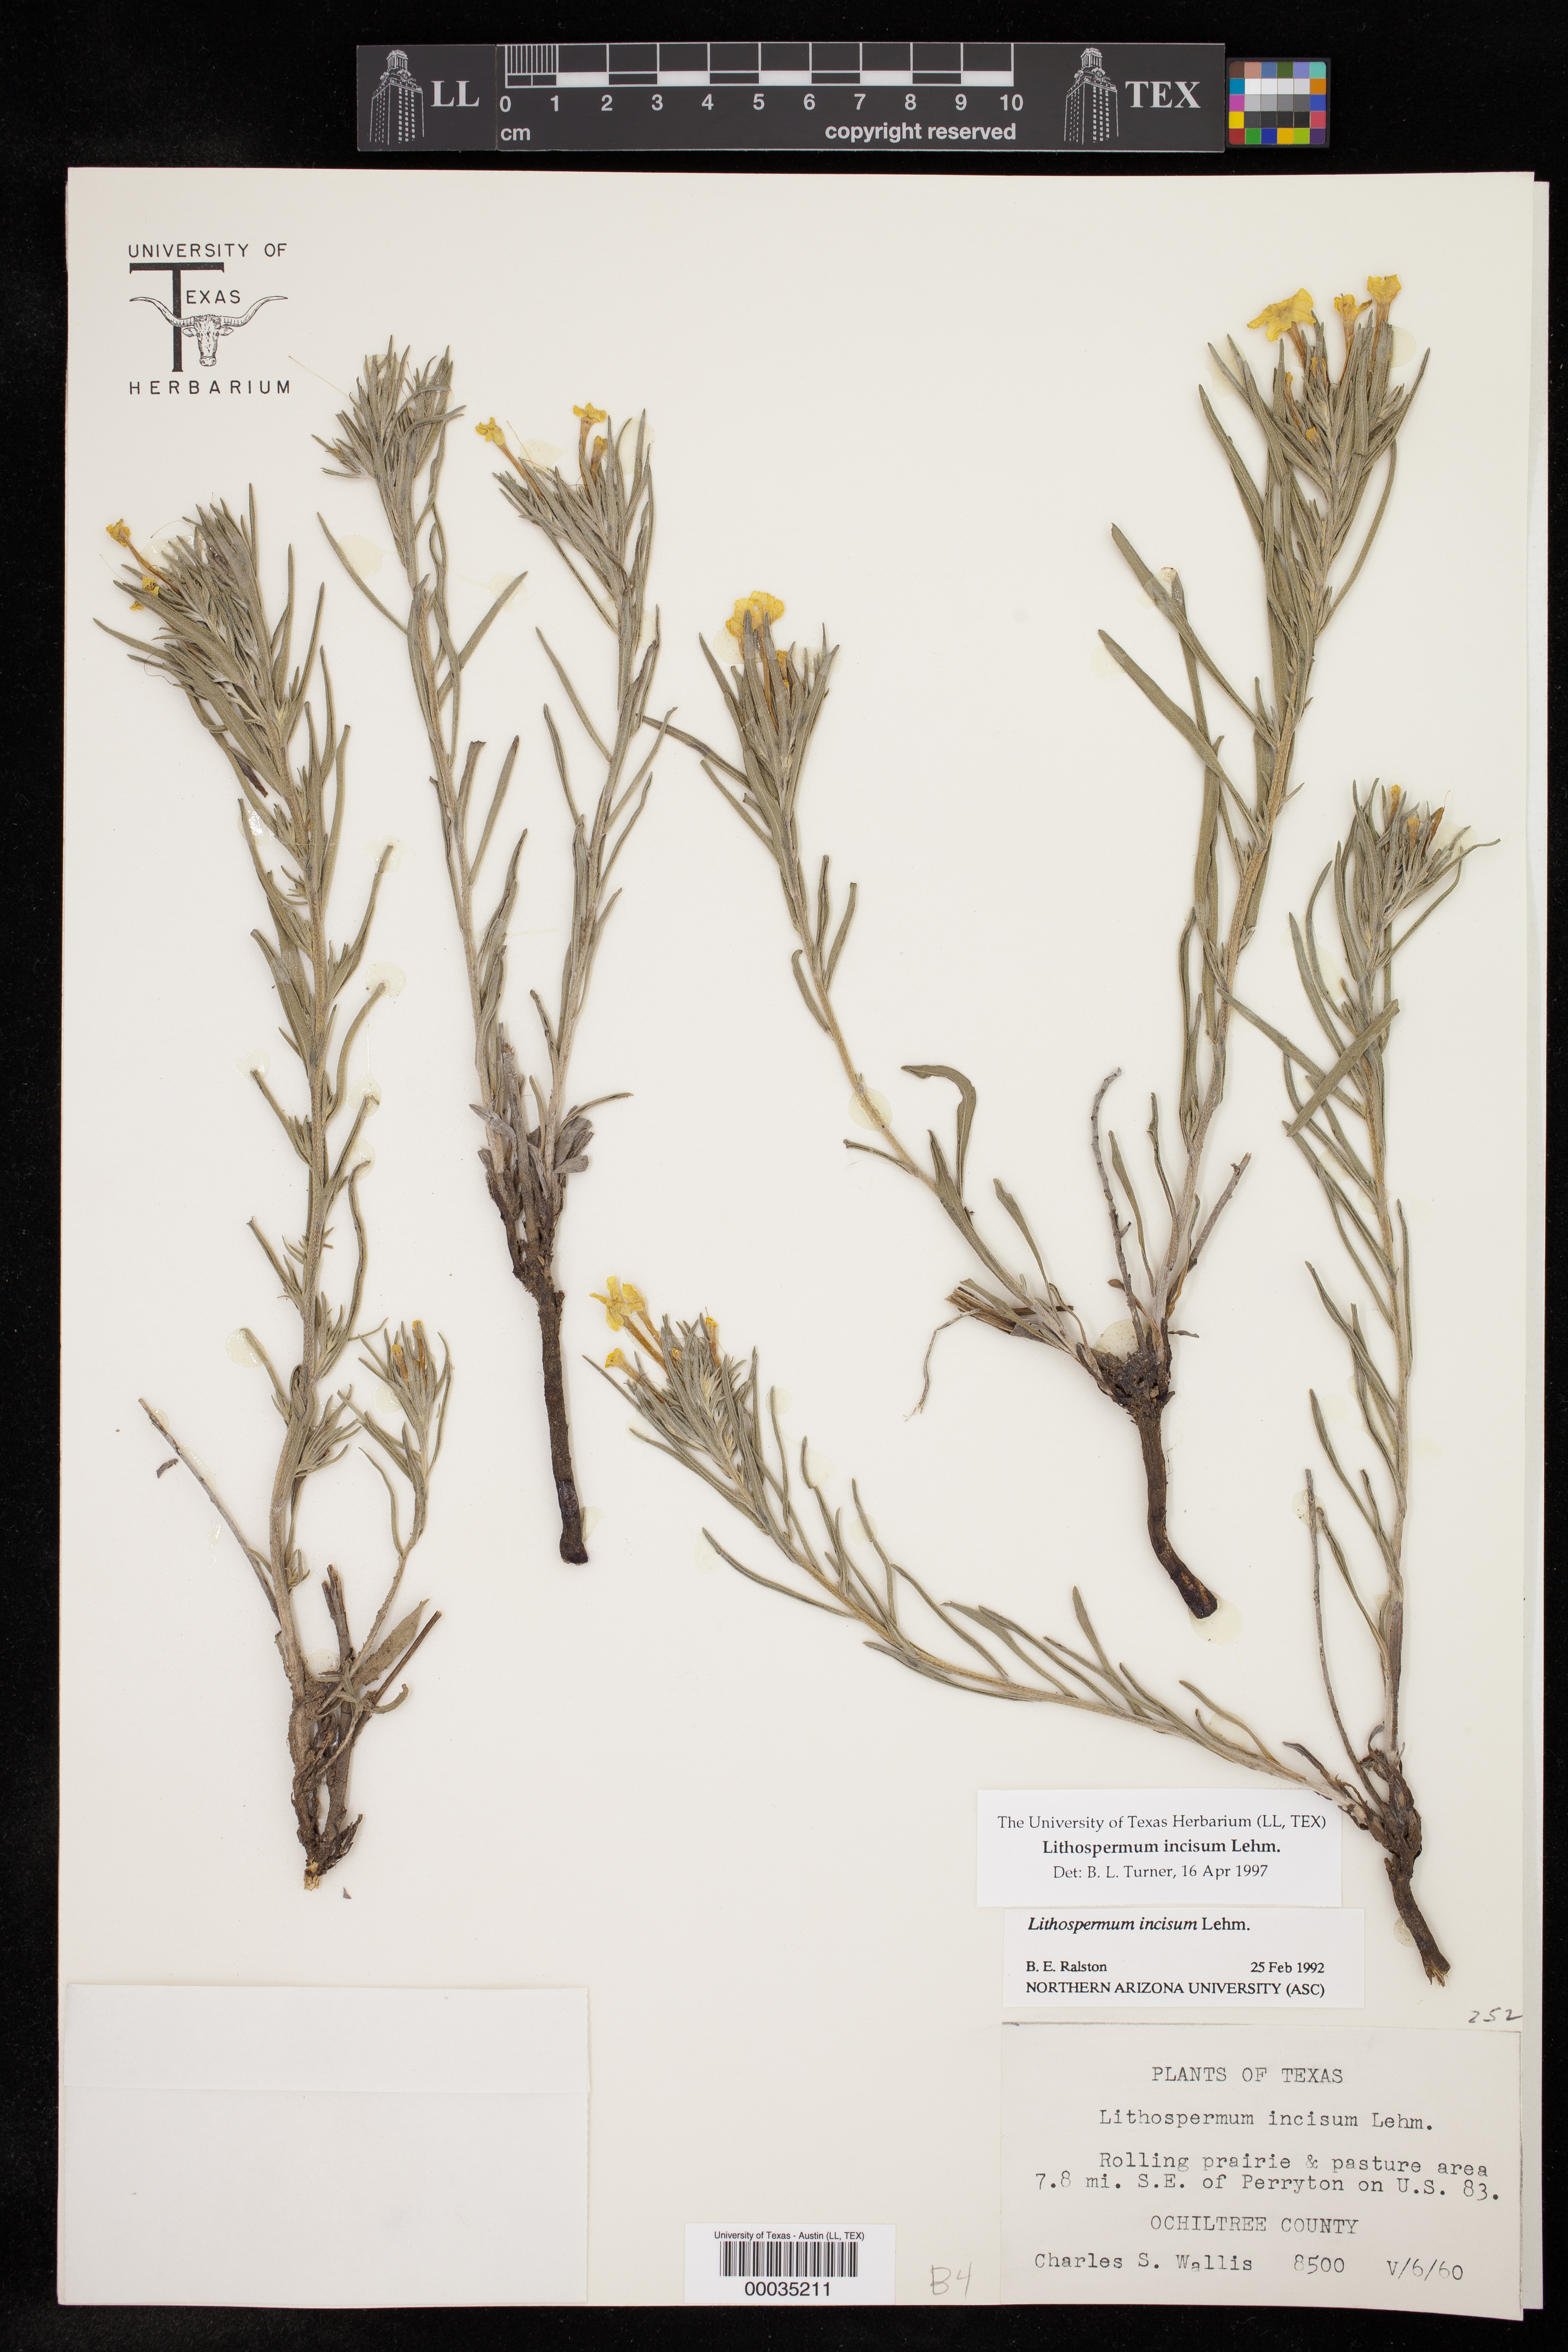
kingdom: Plantae
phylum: Tracheophyta
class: Magnoliopsida
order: Boraginales
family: Boraginaceae
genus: Lithospermum
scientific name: Lithospermum incisum
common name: Fringed gromwell
